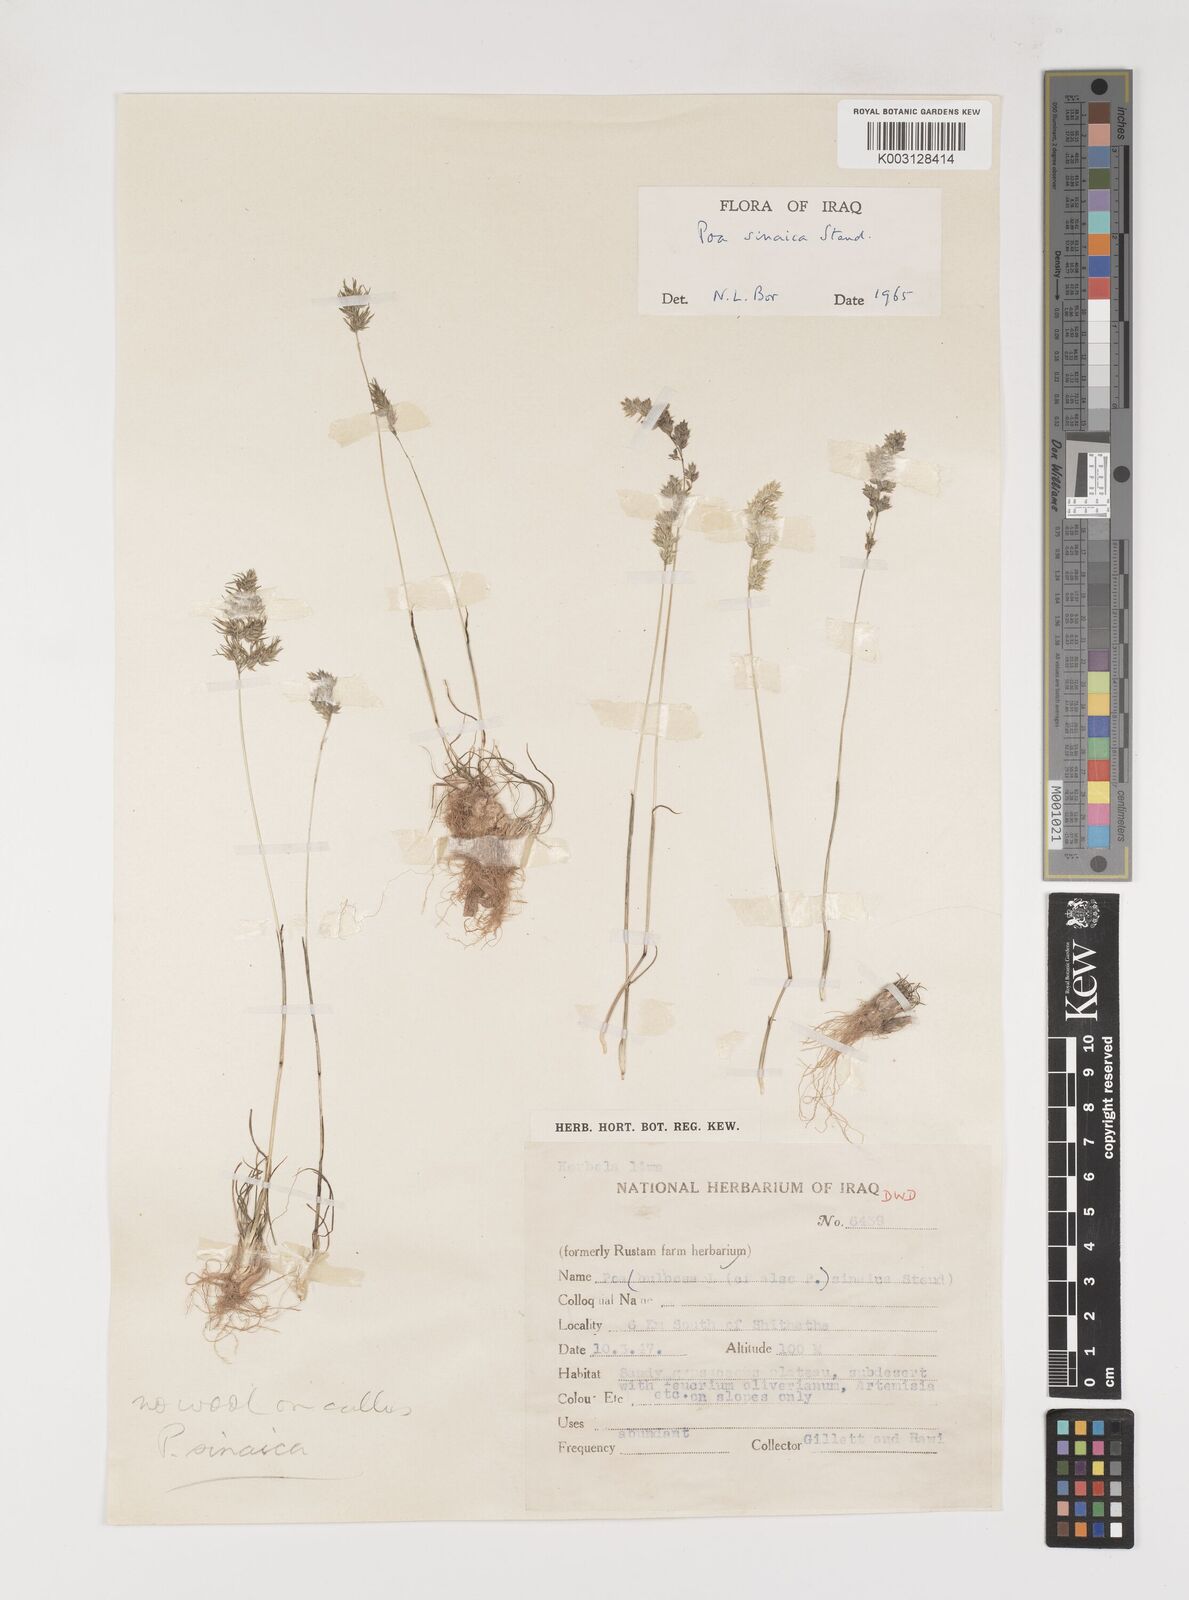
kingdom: Plantae
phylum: Tracheophyta
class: Liliopsida
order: Poales
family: Poaceae
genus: Poa
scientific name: Poa sinaica
